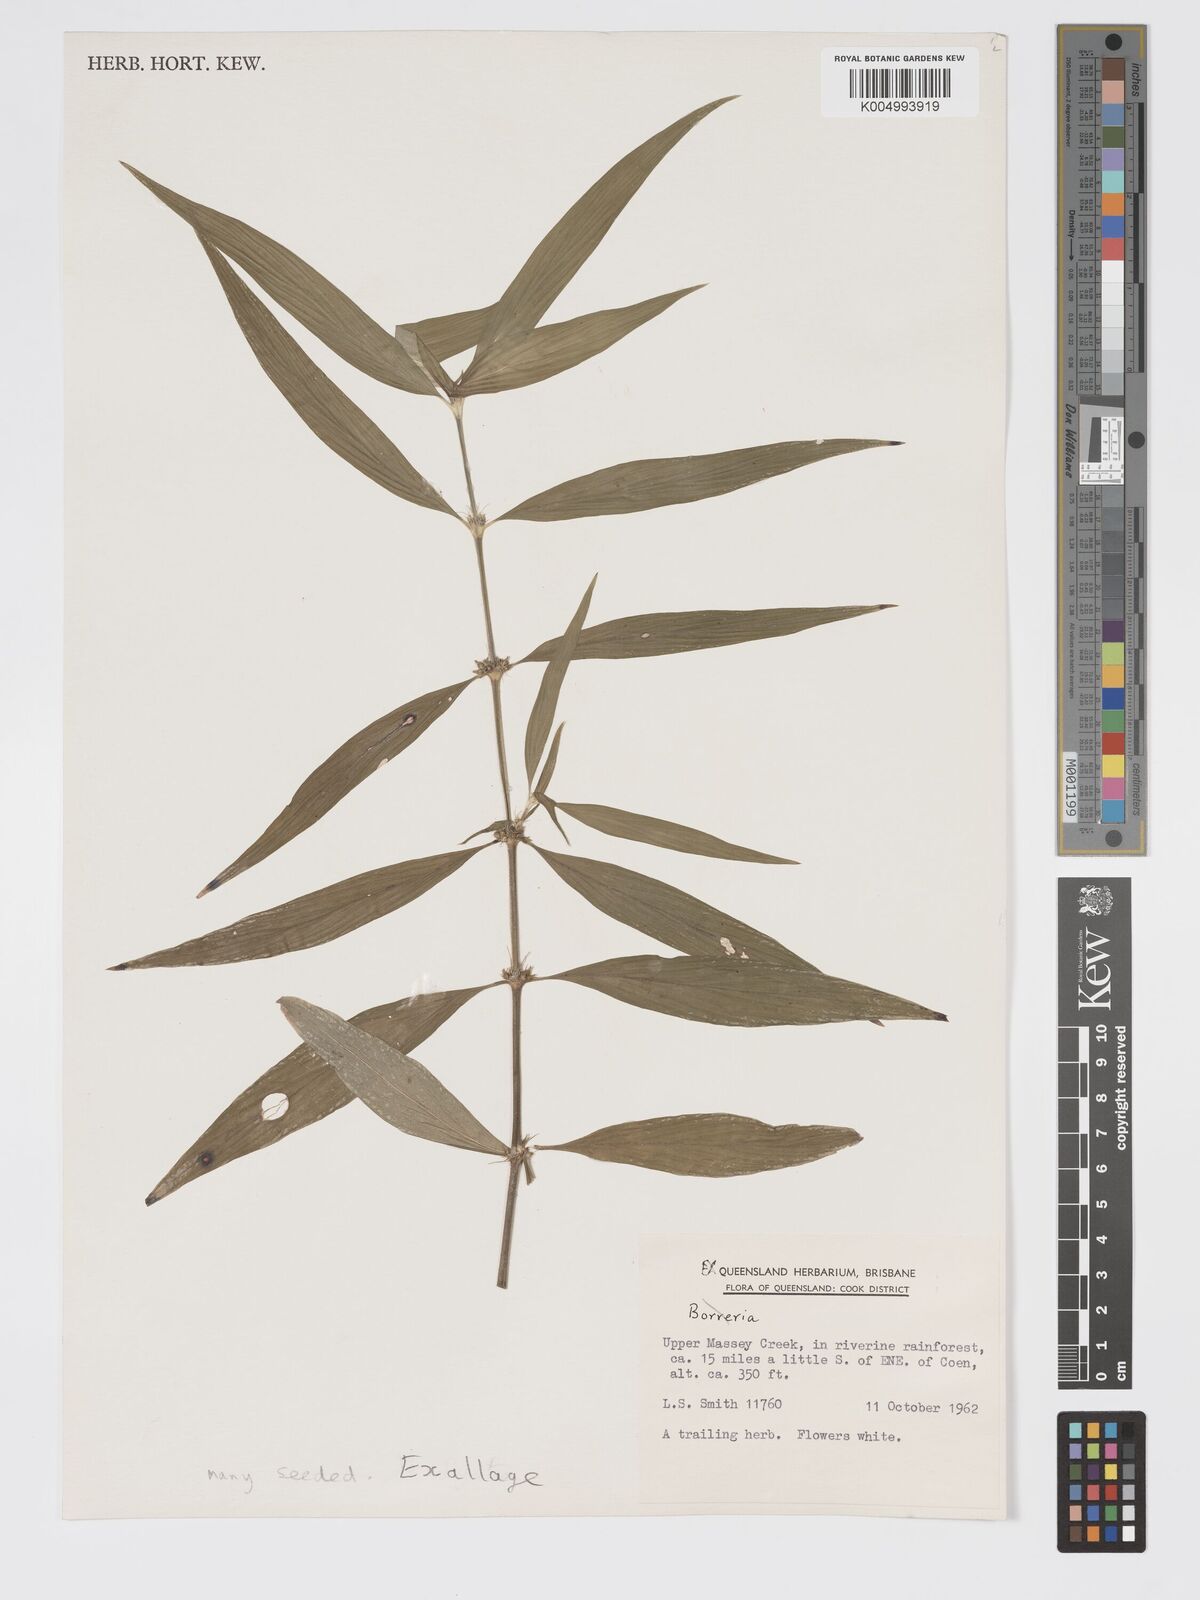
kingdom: Plantae
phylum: Tracheophyta
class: Magnoliopsida
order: Gentianales
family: Rubiaceae
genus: Exallage
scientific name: Exallage lapeyrousei
